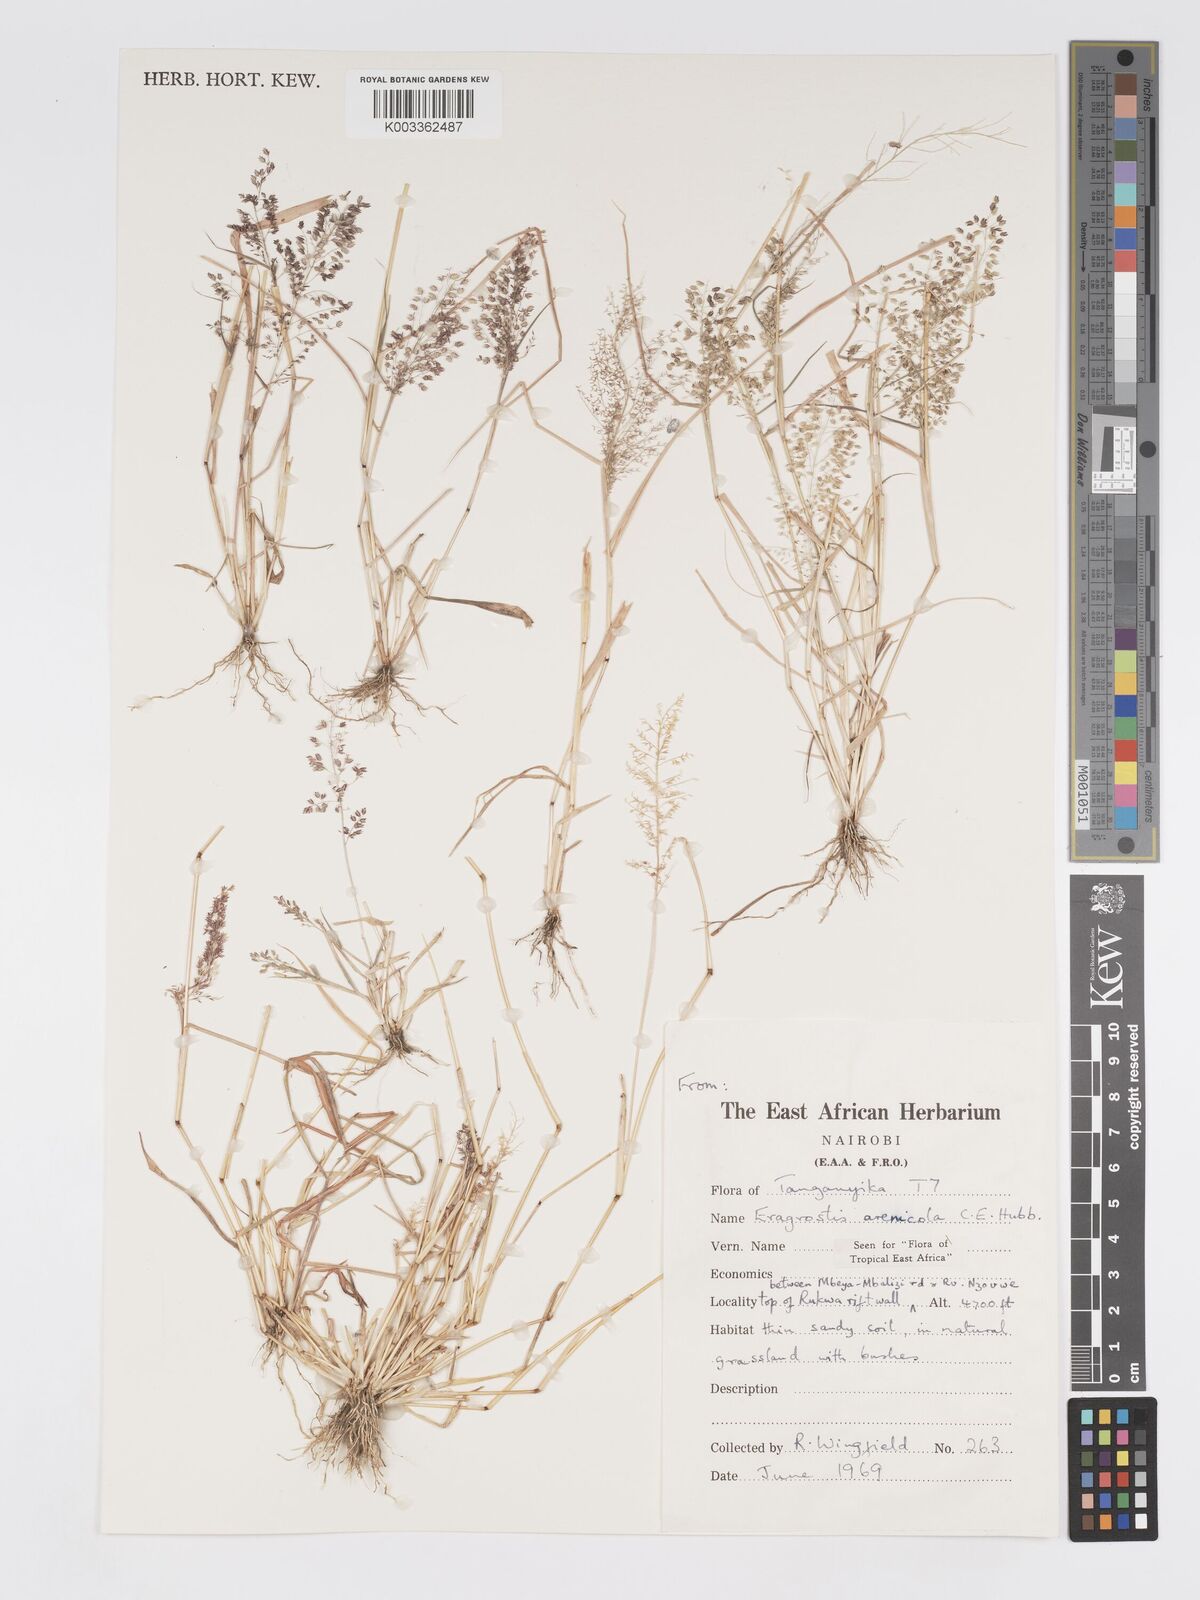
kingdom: Plantae
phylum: Tracheophyta
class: Liliopsida
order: Poales
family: Poaceae
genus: Eragrostis
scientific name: Eragrostis arenicola
